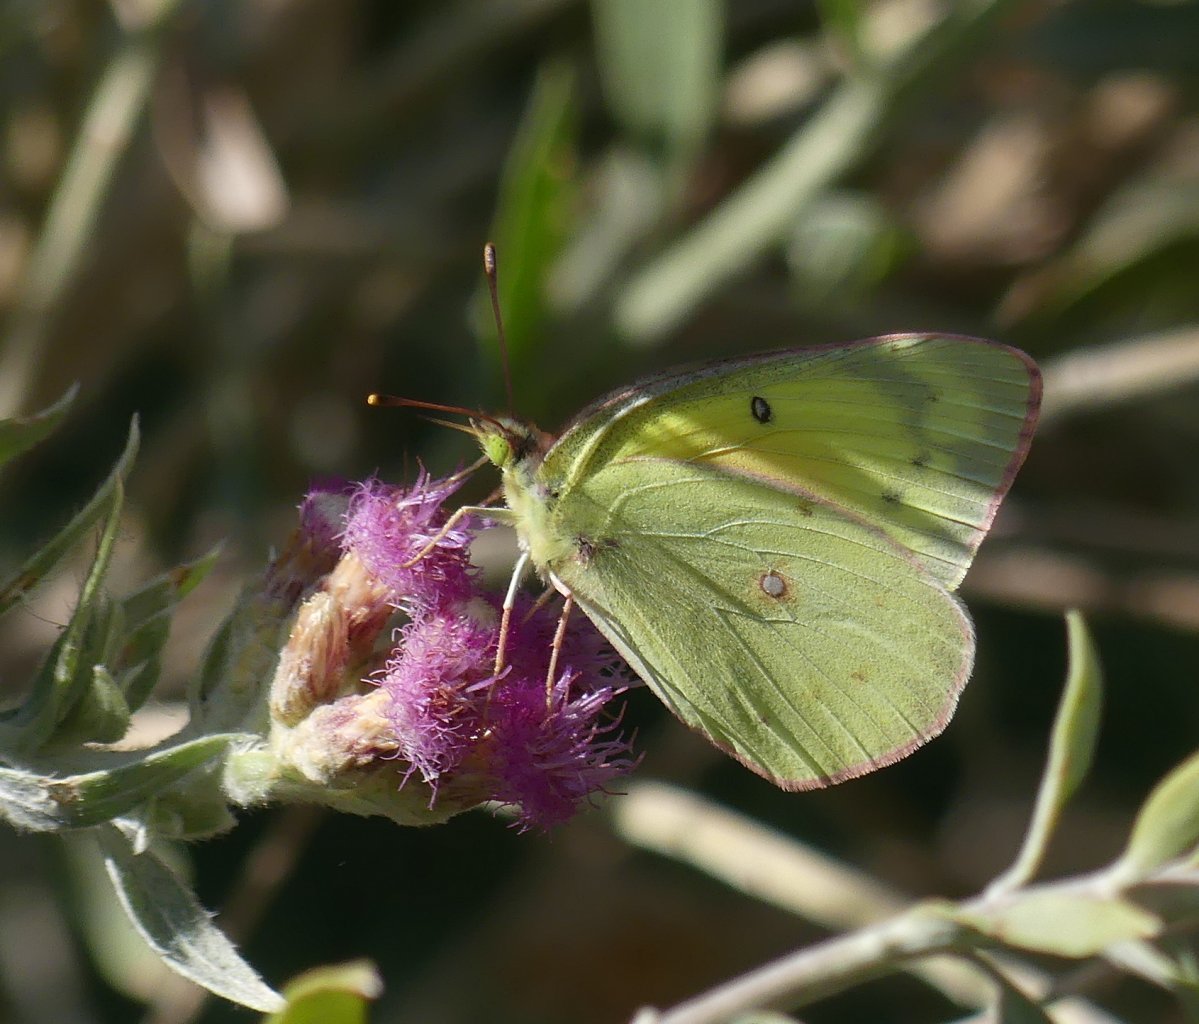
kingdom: Animalia
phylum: Arthropoda
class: Insecta
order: Lepidoptera
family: Pieridae
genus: Colias
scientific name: Colias eurytheme
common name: Orange Sulphur
